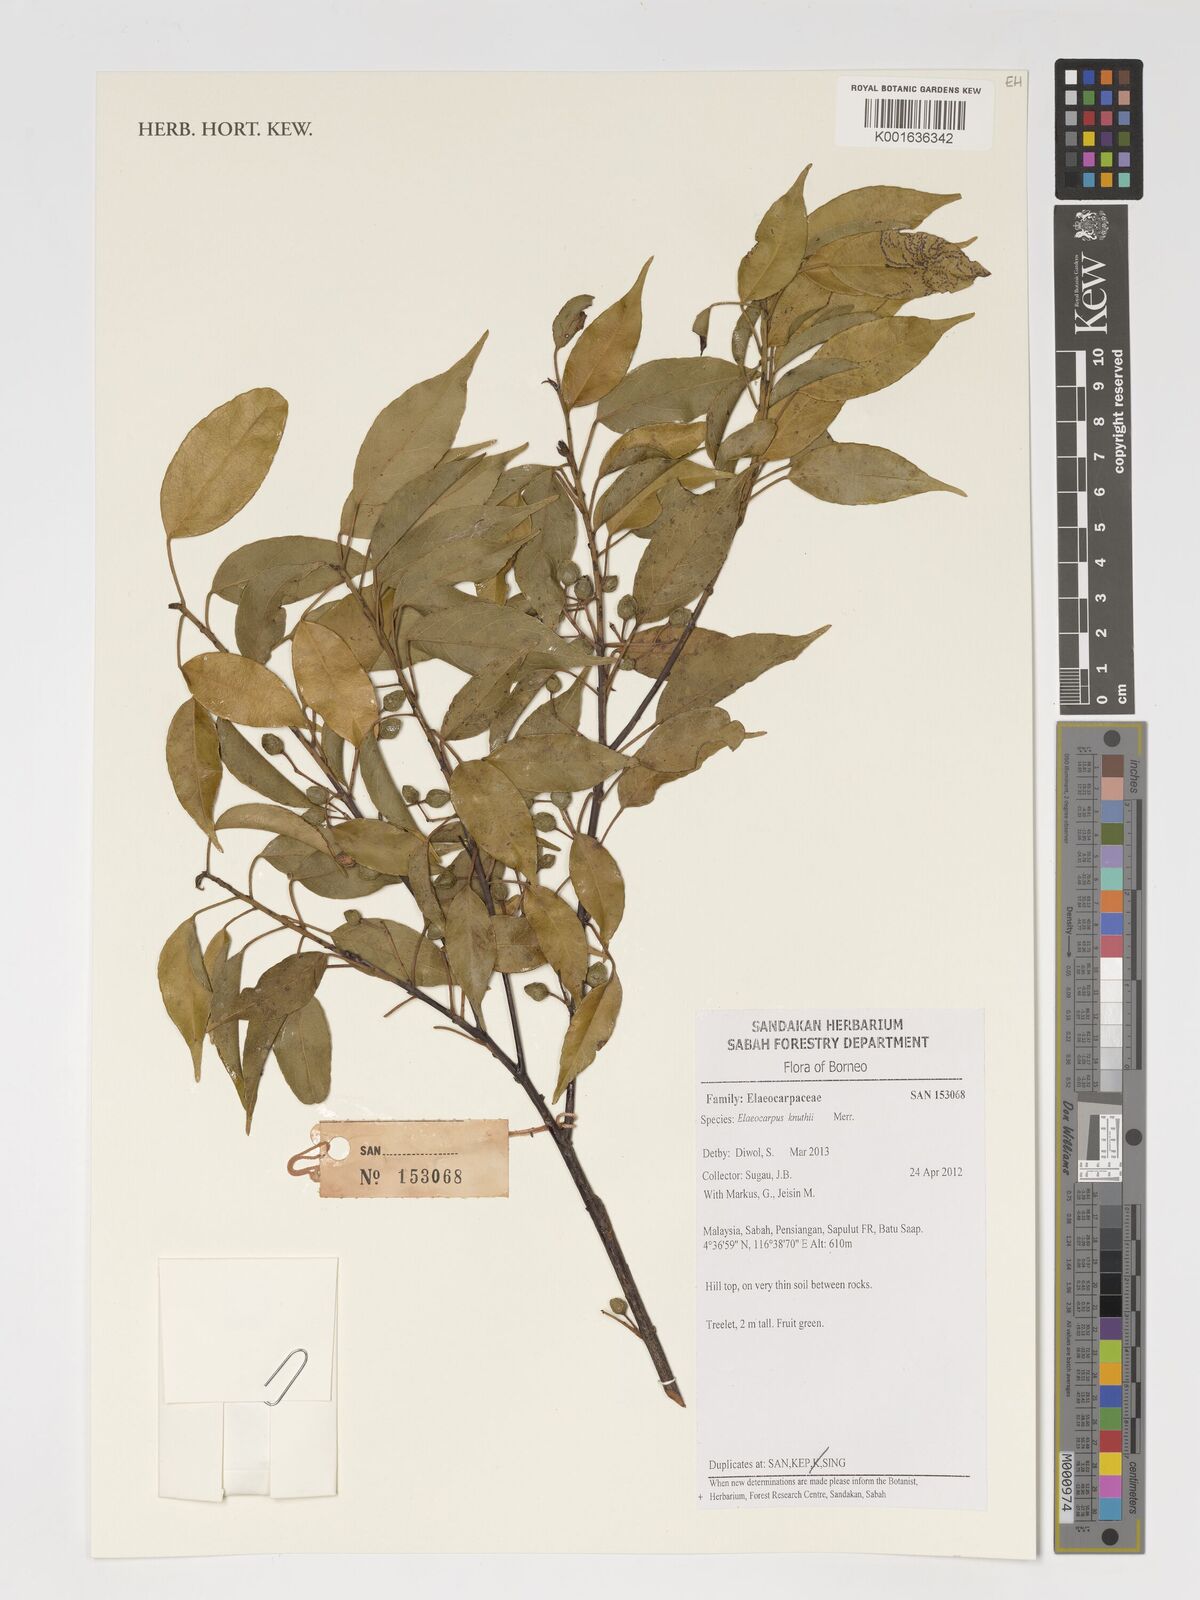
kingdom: Plantae
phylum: Tracheophyta
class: Magnoliopsida
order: Oxalidales
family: Elaeocarpaceae
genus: Elaeocarpus
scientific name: Elaeocarpus knuthii
